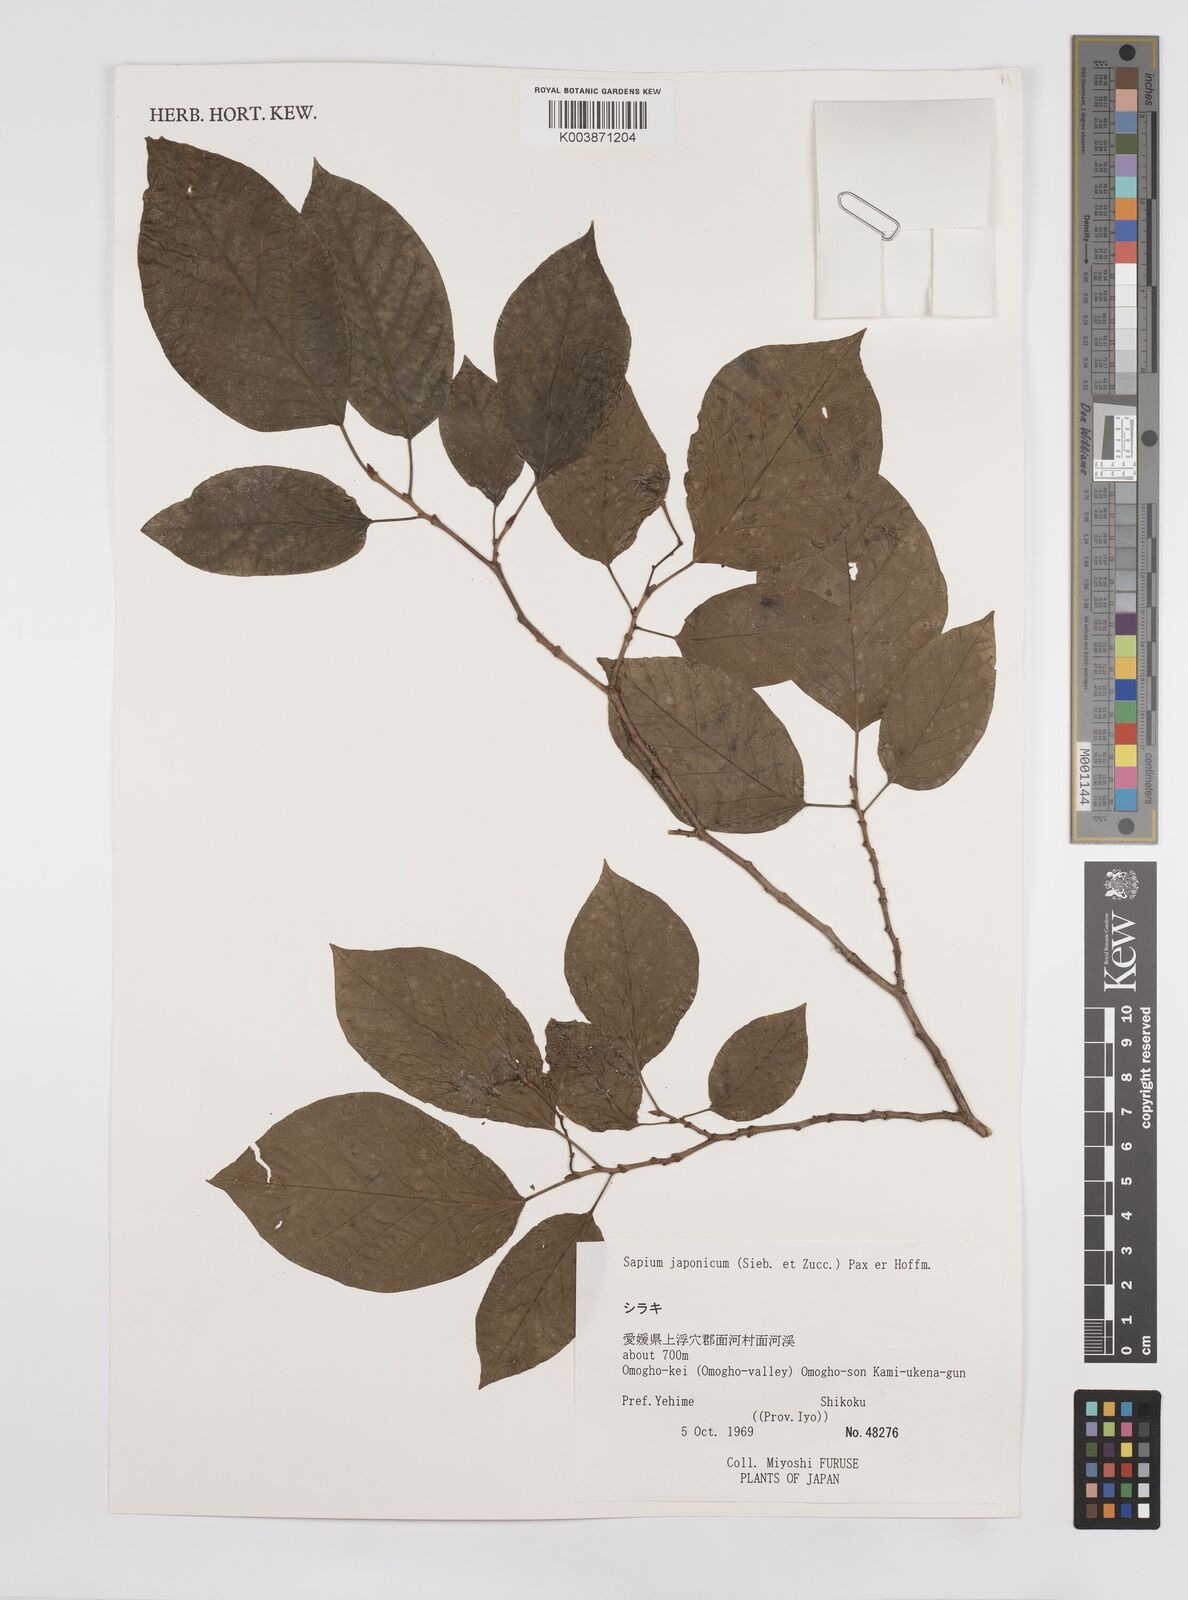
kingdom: Plantae
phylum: Tracheophyta
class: Magnoliopsida
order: Malpighiales
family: Euphorbiaceae
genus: Neoshirakia
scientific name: Neoshirakia japonica
